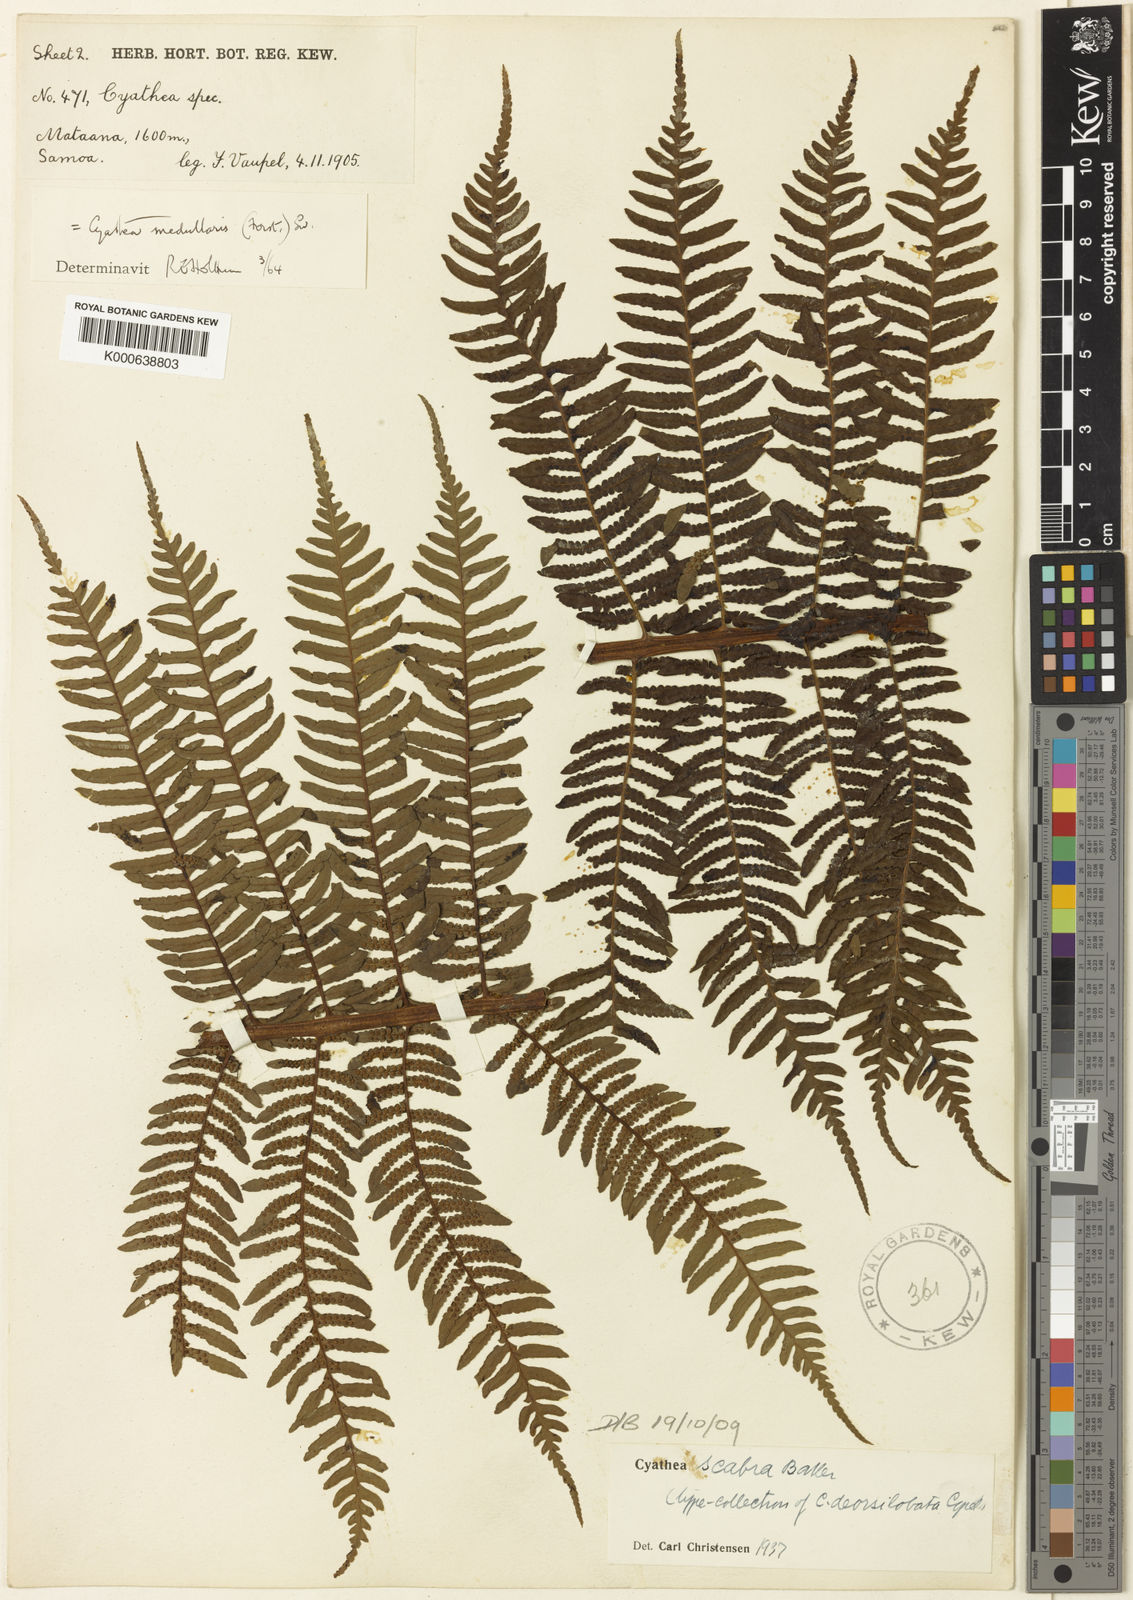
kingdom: Plantae
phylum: Tracheophyta
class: Polypodiopsida
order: Cyatheales
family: Cyatheaceae
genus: Sphaeropteris
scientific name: Sphaeropteris medullaris
